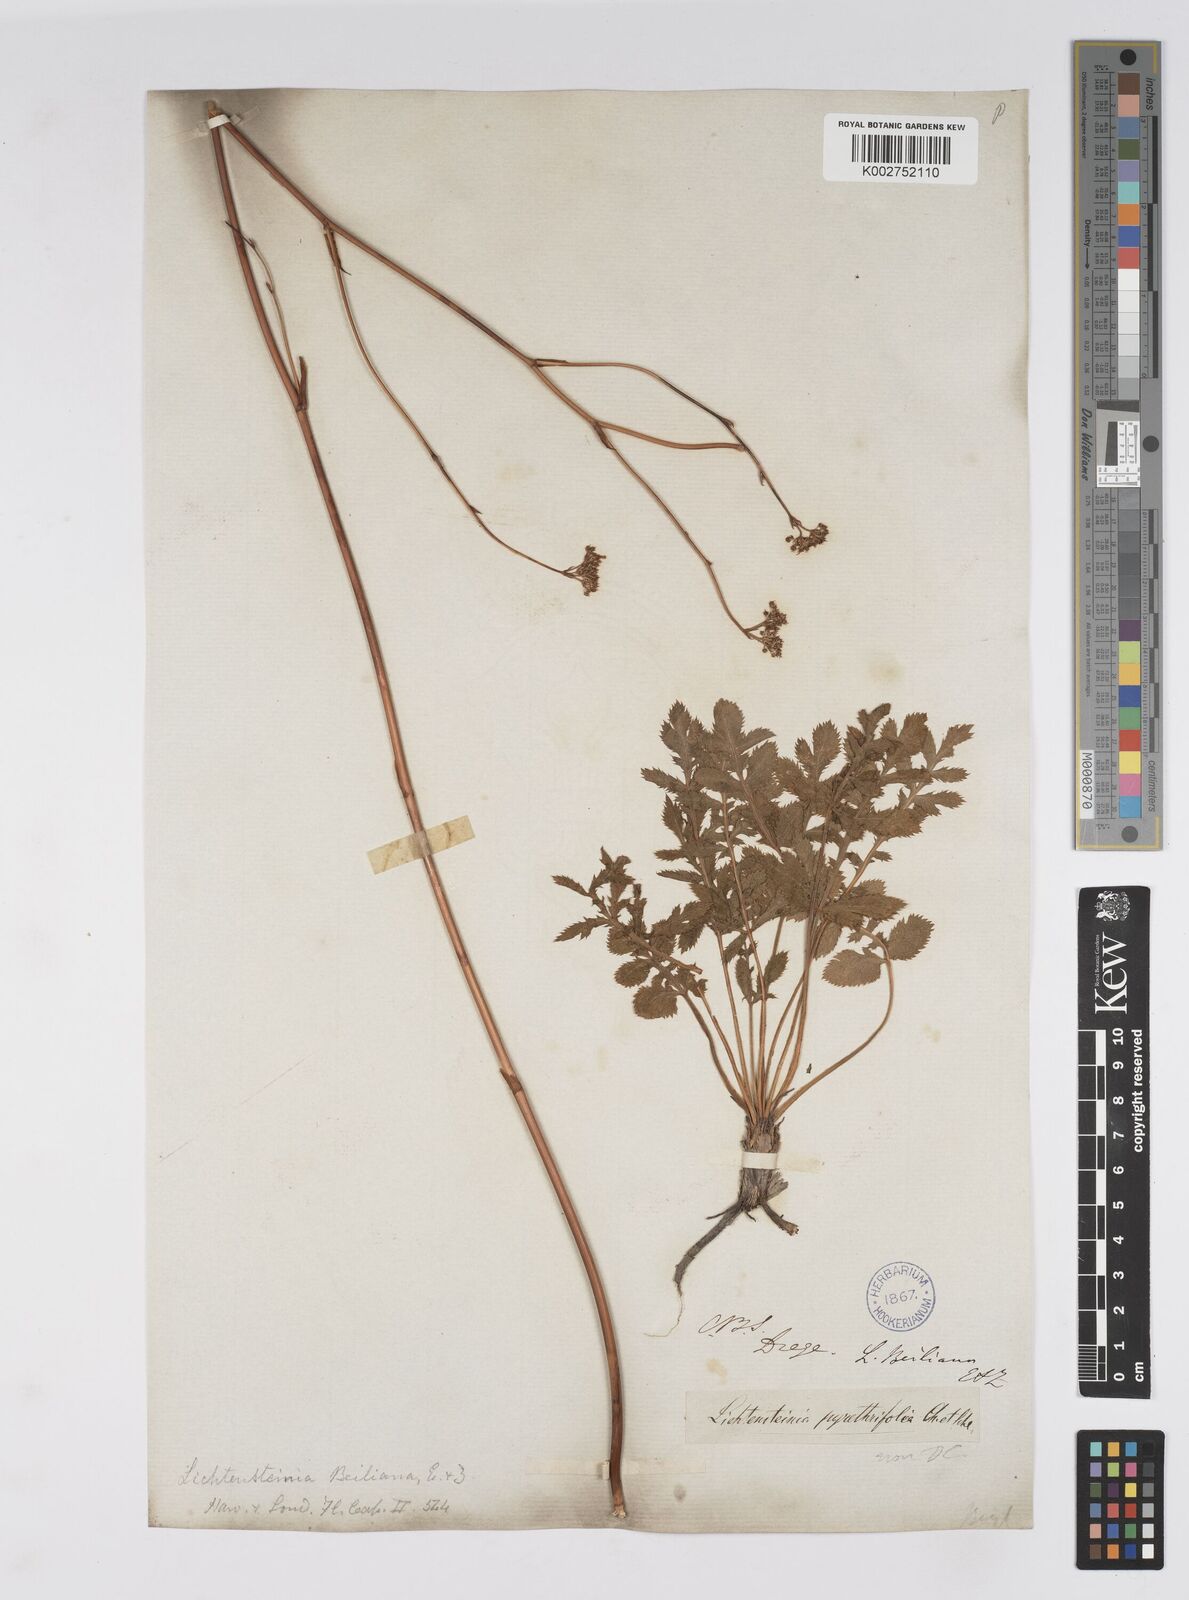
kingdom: Plantae
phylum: Tracheophyta
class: Magnoliopsida
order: Apiales
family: Apiaceae
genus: Lichtensteinia
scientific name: Lichtensteinia obscura
